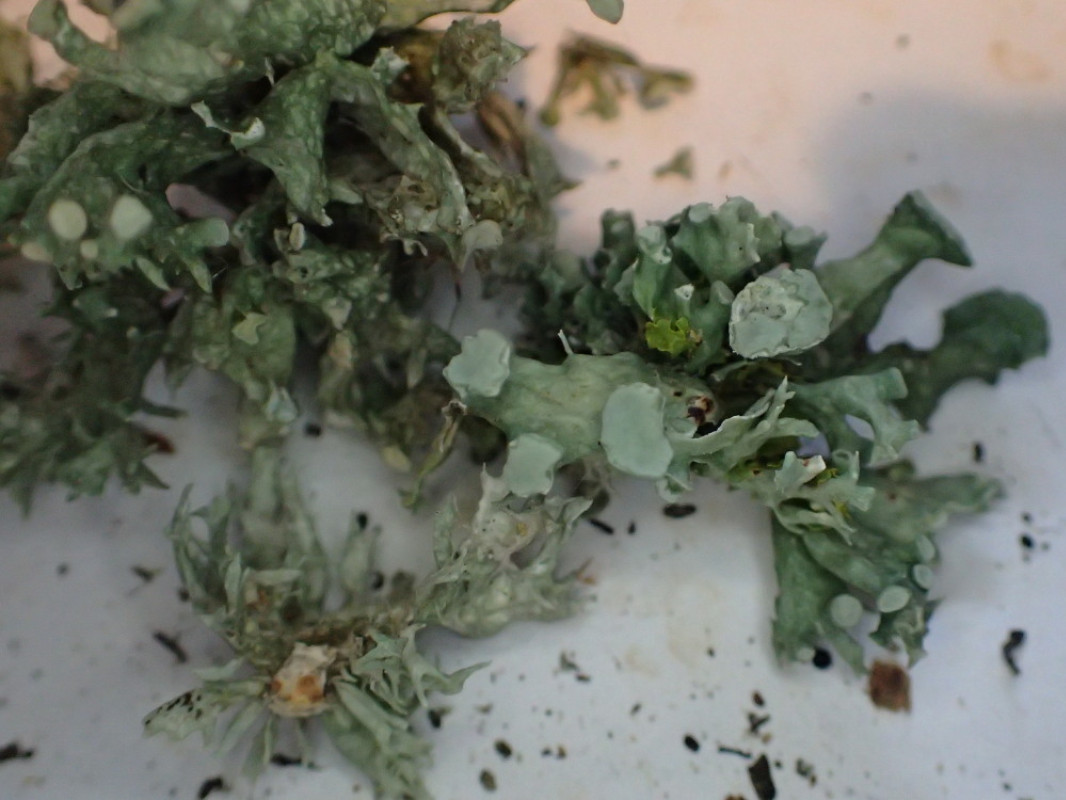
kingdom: Fungi
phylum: Ascomycota
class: Lecanoromycetes
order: Lecanorales
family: Ramalinaceae
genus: Ramalina
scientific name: Ramalina fastigiata
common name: tue-grenlav
